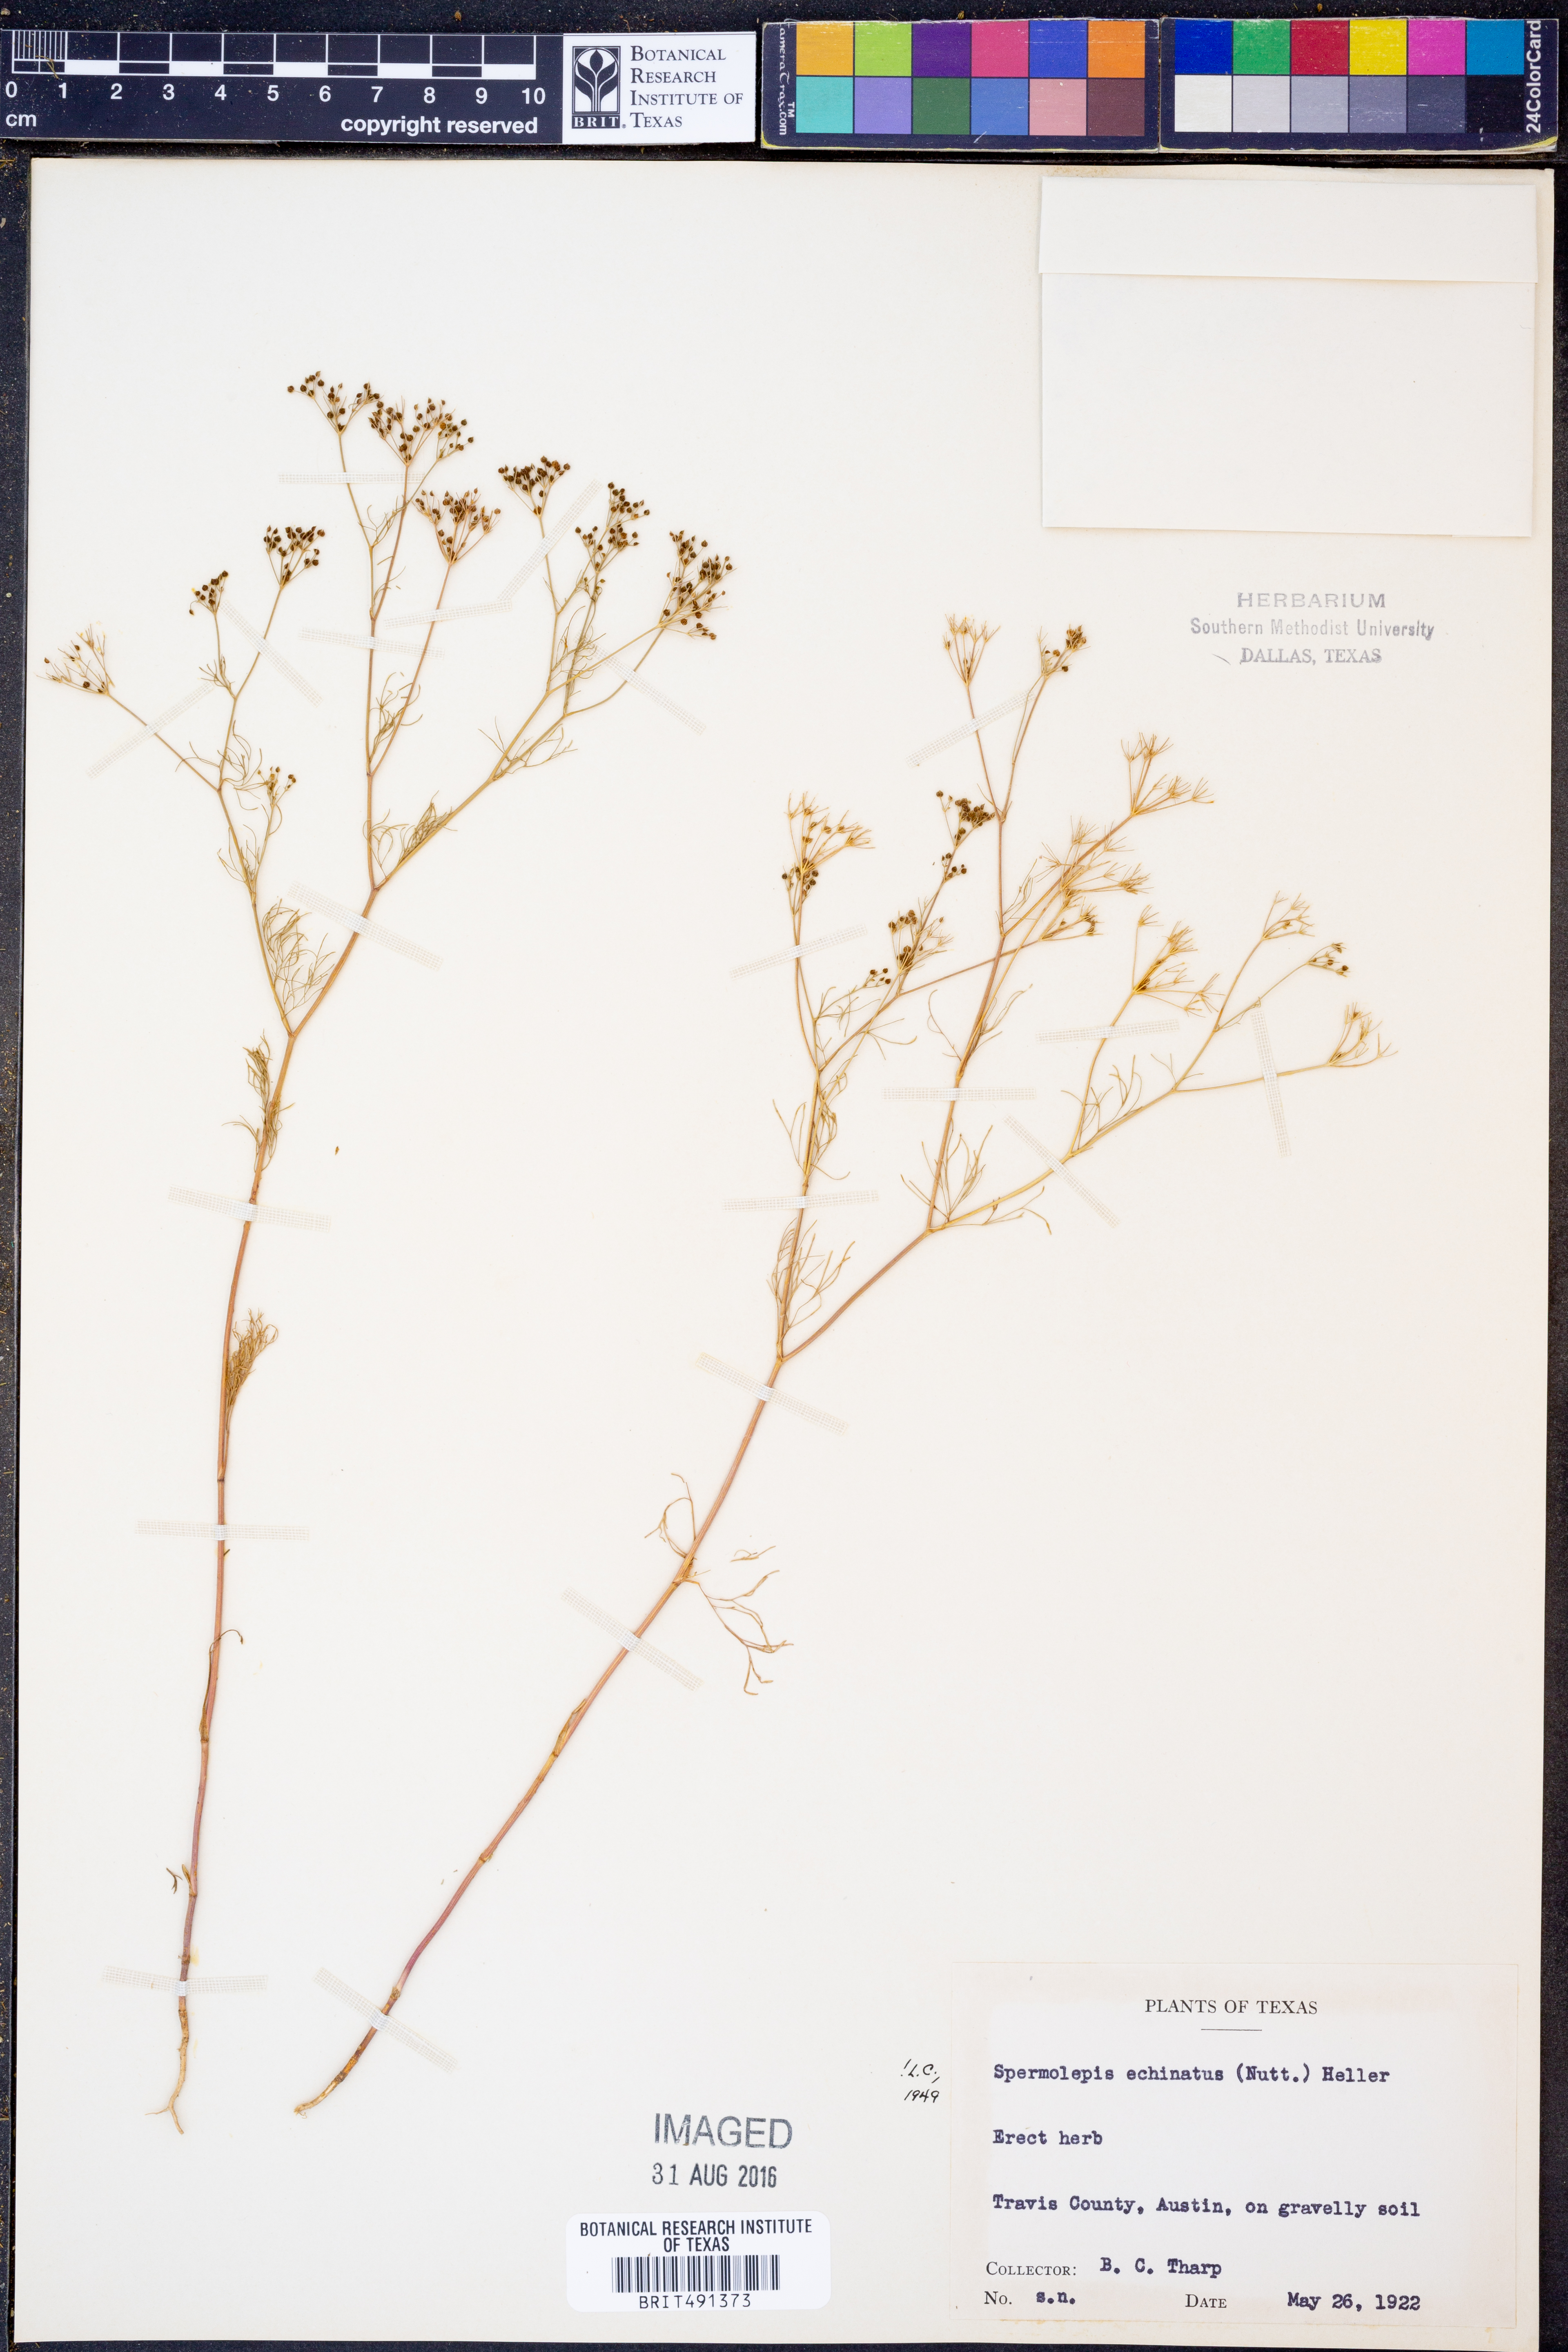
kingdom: Plantae
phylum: Tracheophyta
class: Magnoliopsida
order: Apiales
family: Apiaceae
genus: Spermolepis
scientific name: Spermolepis echinata
